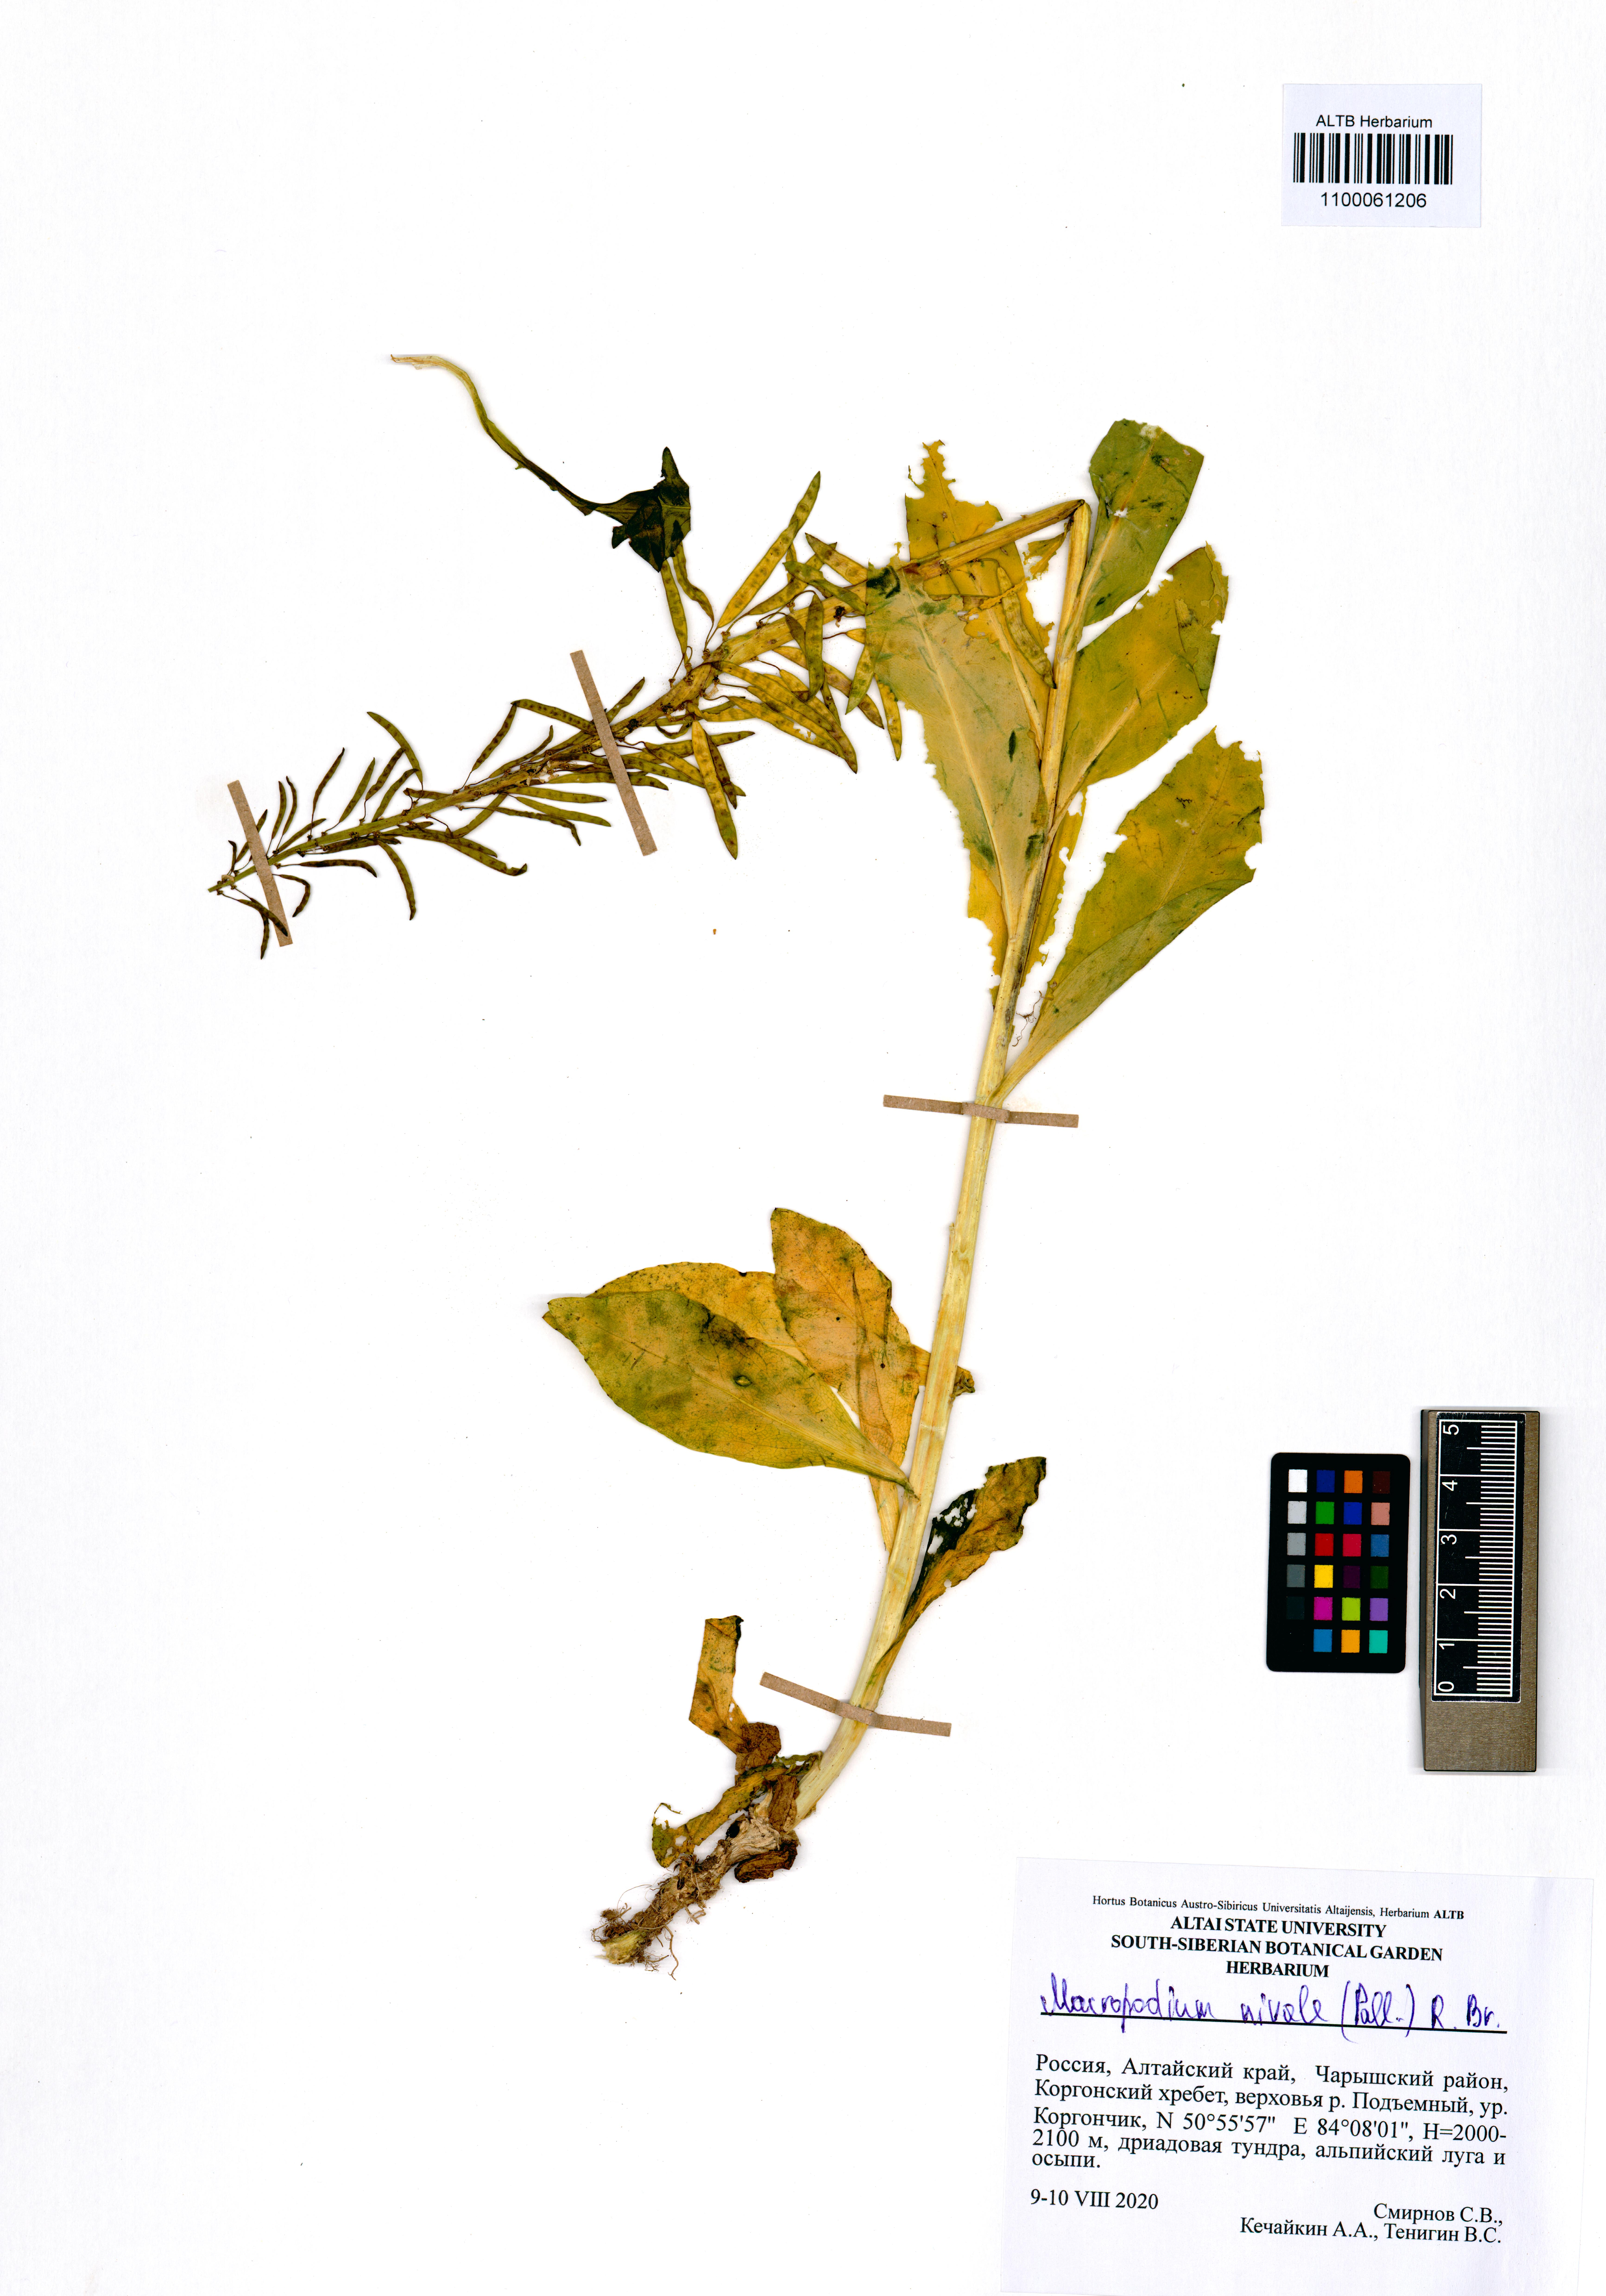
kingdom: Plantae
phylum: Tracheophyta
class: Magnoliopsida
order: Brassicales
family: Brassicaceae
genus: Macropodium
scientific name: Macropodium nivale
